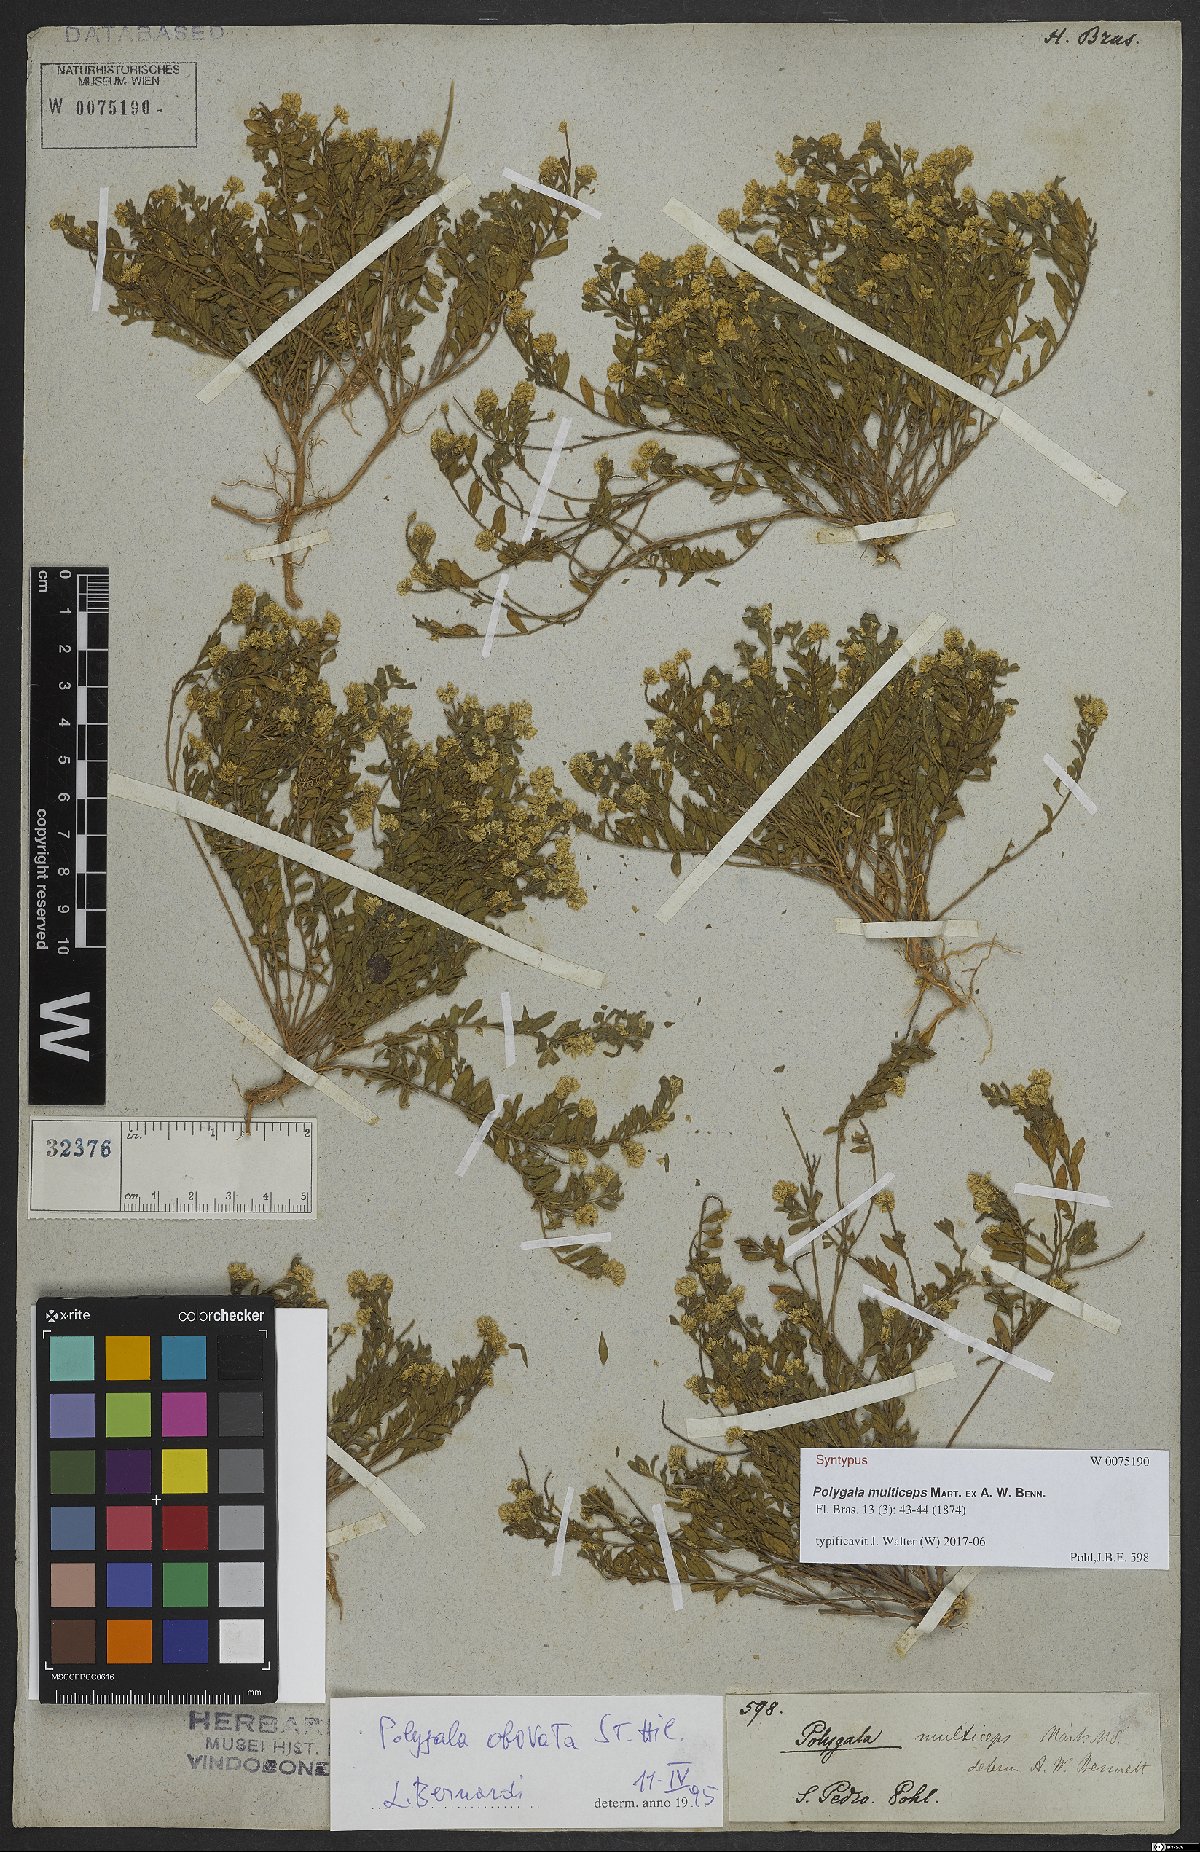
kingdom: Plantae
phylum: Tracheophyta
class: Magnoliopsida
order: Fabales
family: Polygalaceae
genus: Polygala
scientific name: Polygala multiceps
